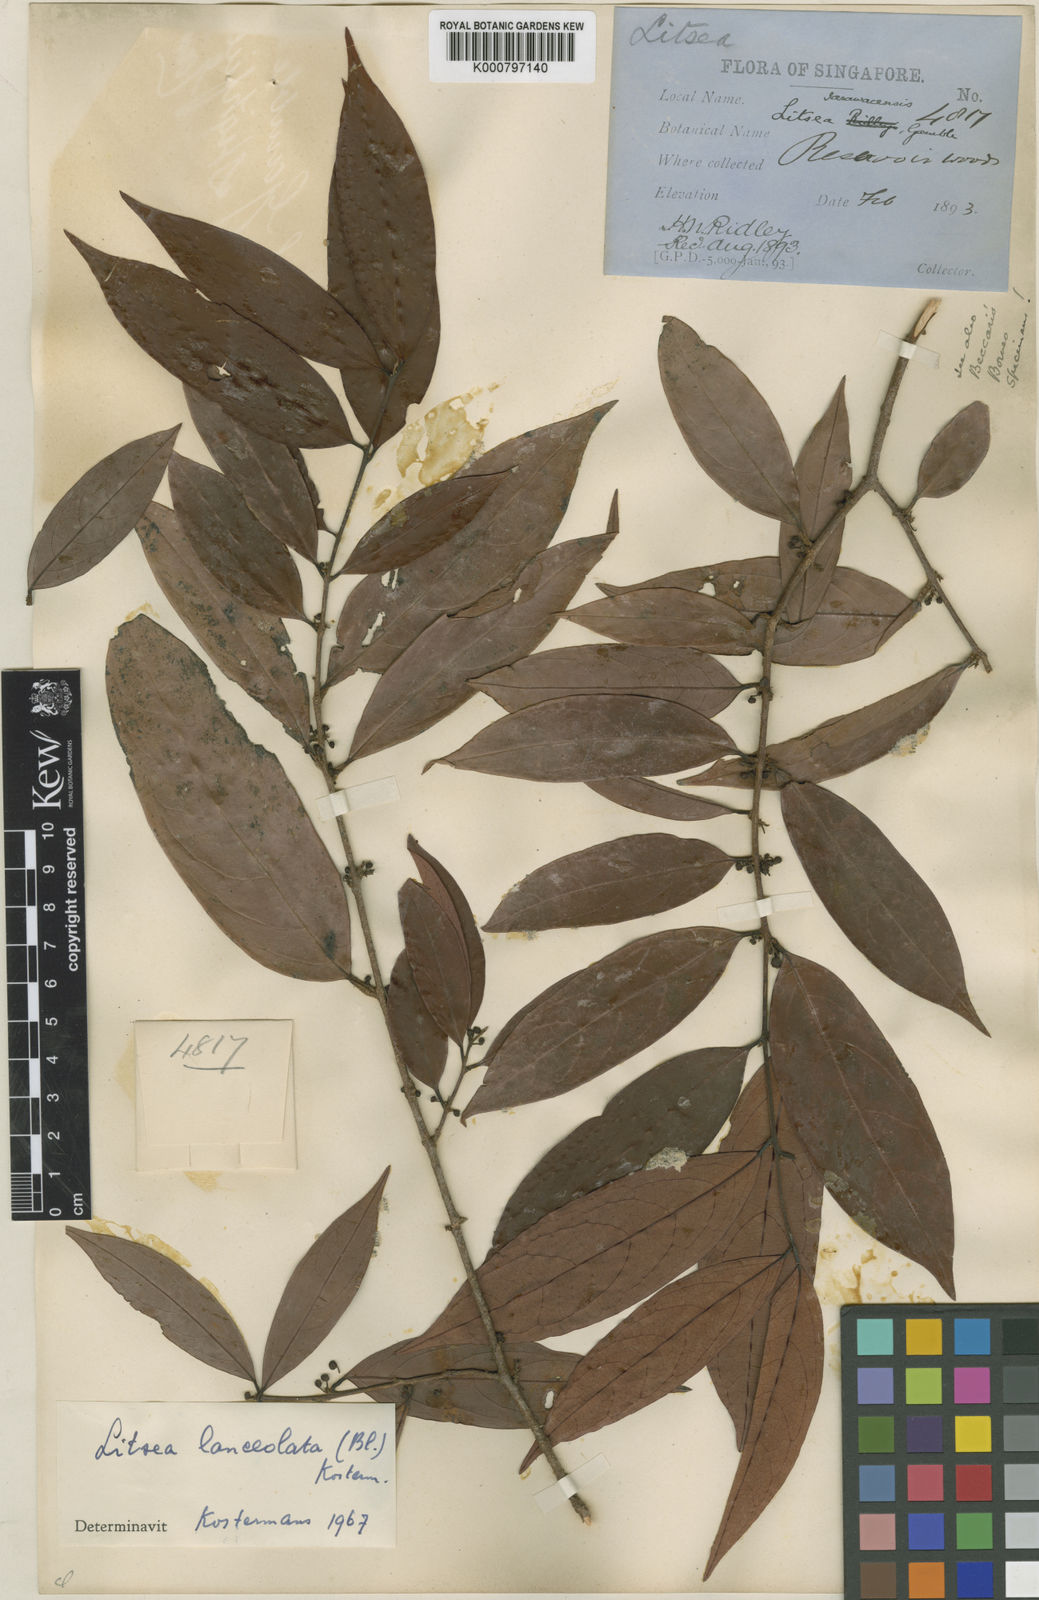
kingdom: Plantae
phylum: Tracheophyta
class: Magnoliopsida
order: Laurales
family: Lauraceae
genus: Litsea
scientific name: Litsea lanceolata
